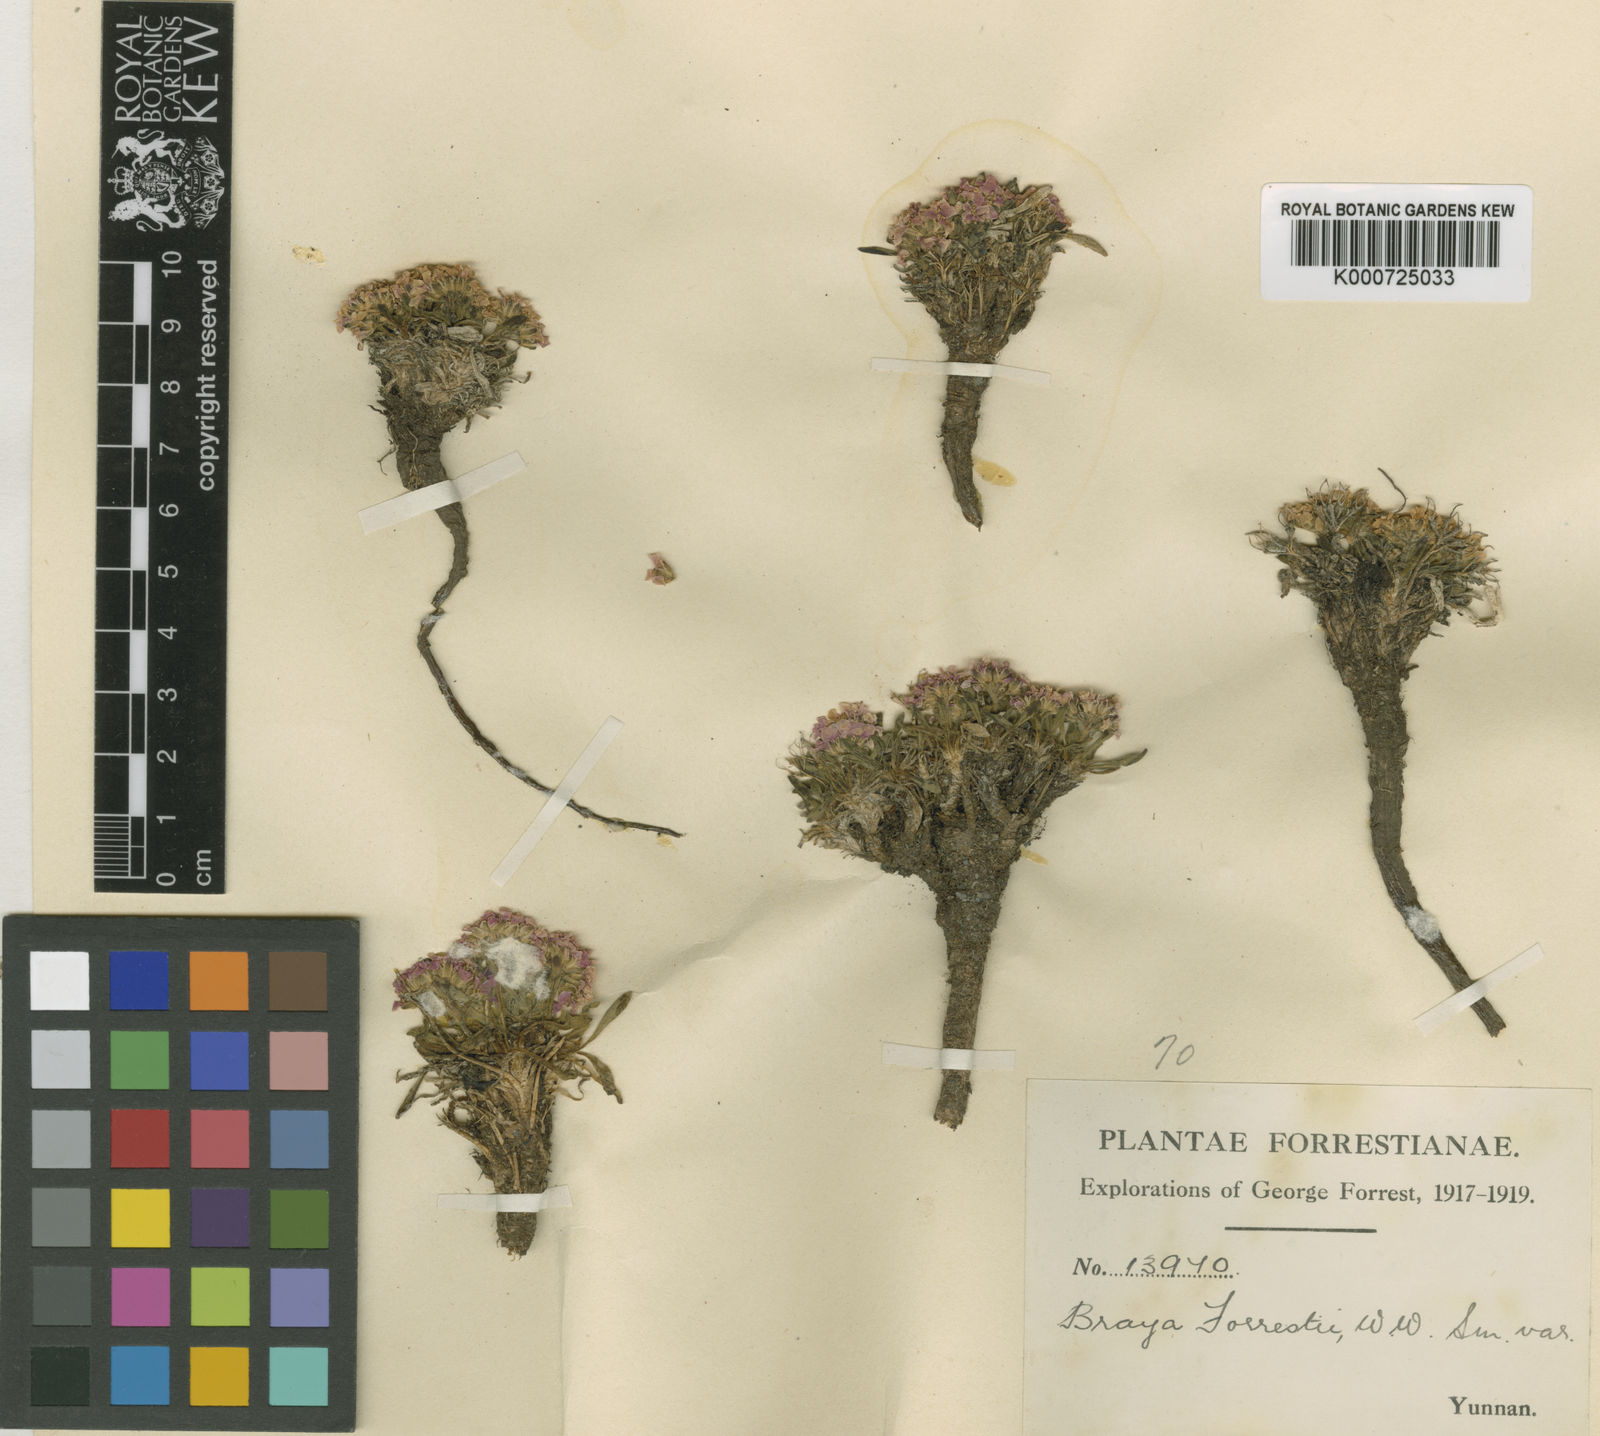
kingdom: Plantae
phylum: Tracheophyta
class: Magnoliopsida
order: Brassicales
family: Brassicaceae
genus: Metashangrilaia
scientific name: Metashangrilaia forrestii
